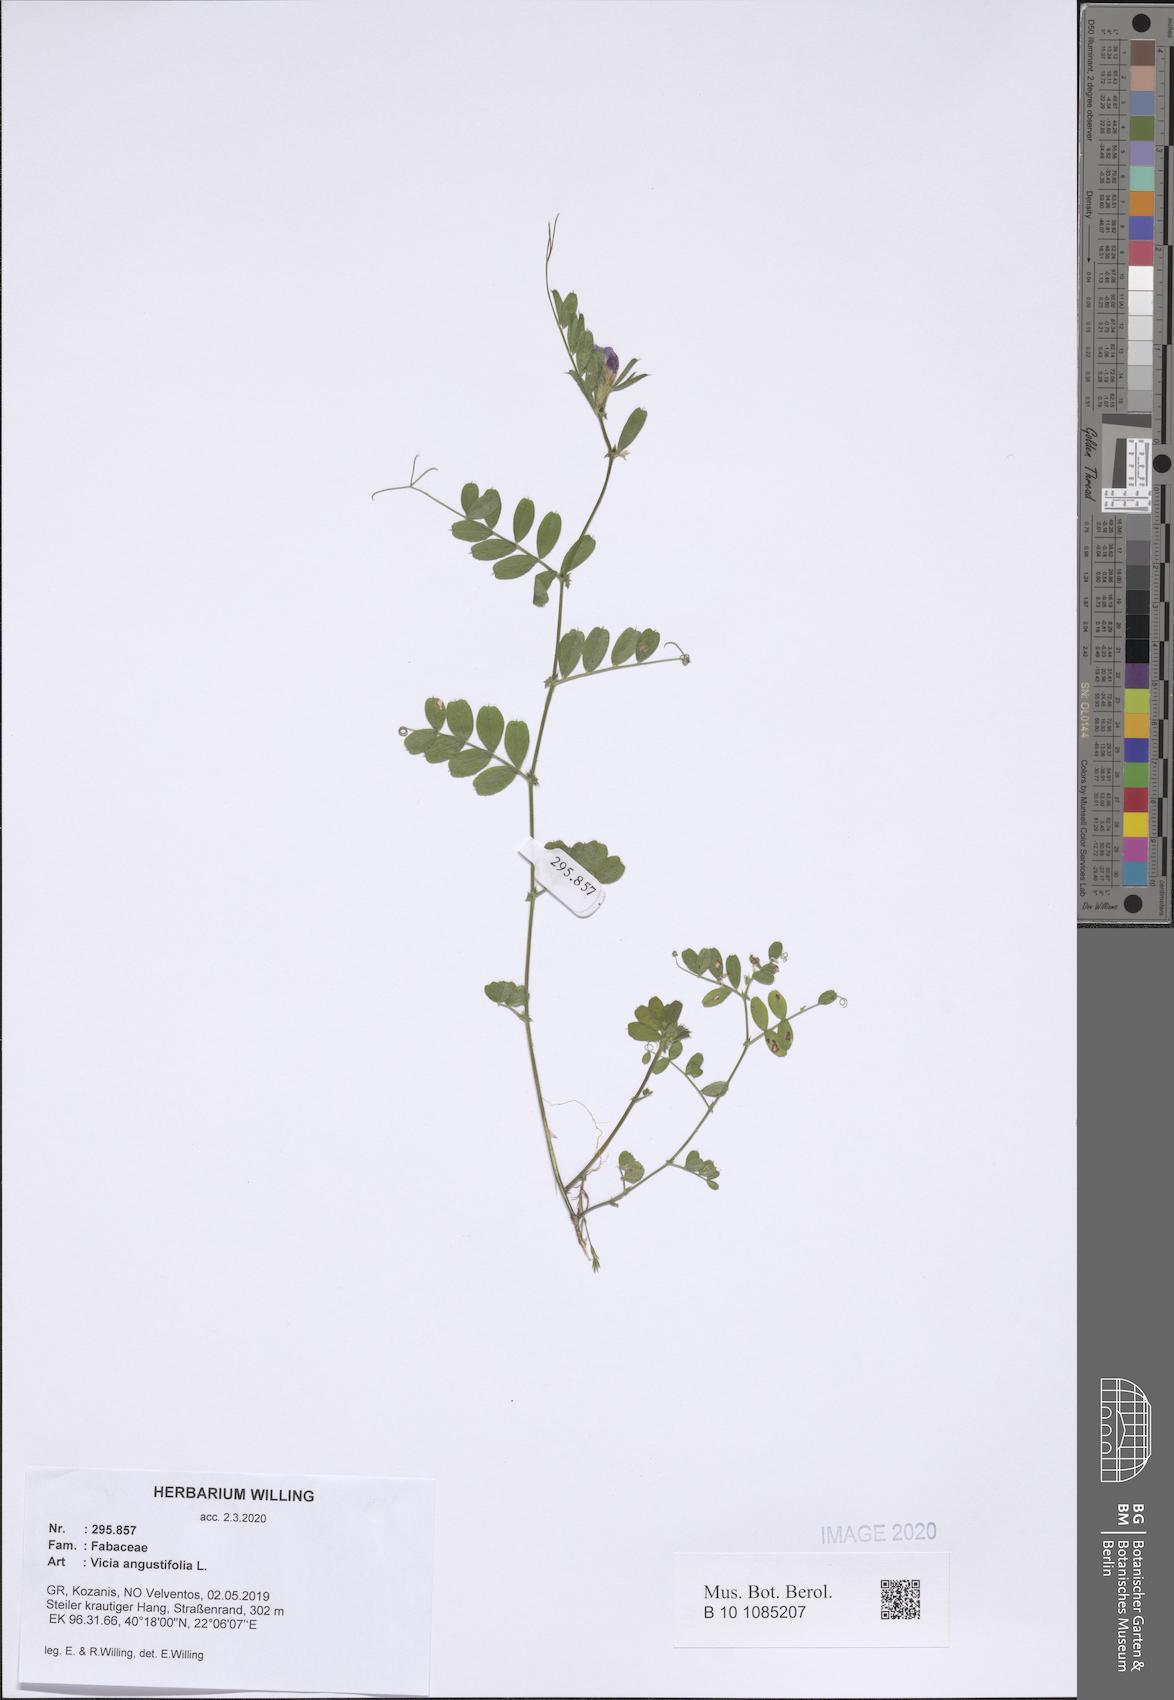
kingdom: Plantae
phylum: Tracheophyta
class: Magnoliopsida
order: Fabales
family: Fabaceae
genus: Vicia
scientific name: Vicia sativa
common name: Garden vetch
